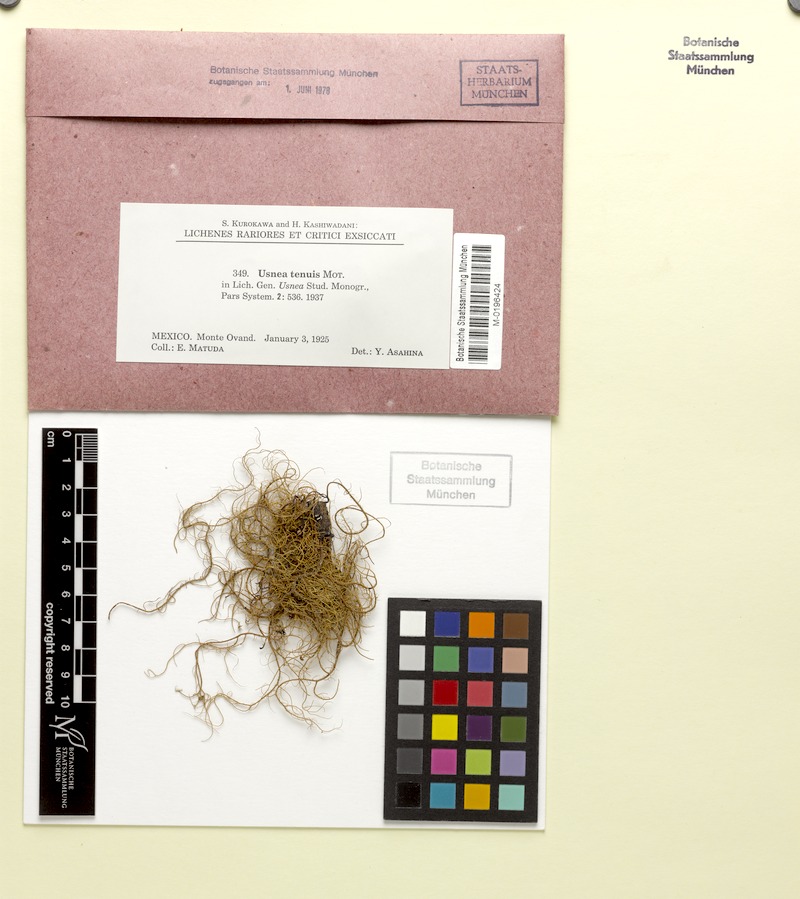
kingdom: Fungi
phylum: Ascomycota
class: Lecanoromycetes
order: Lecanorales
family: Parmeliaceae
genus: Usnea
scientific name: Usnea tenuis
